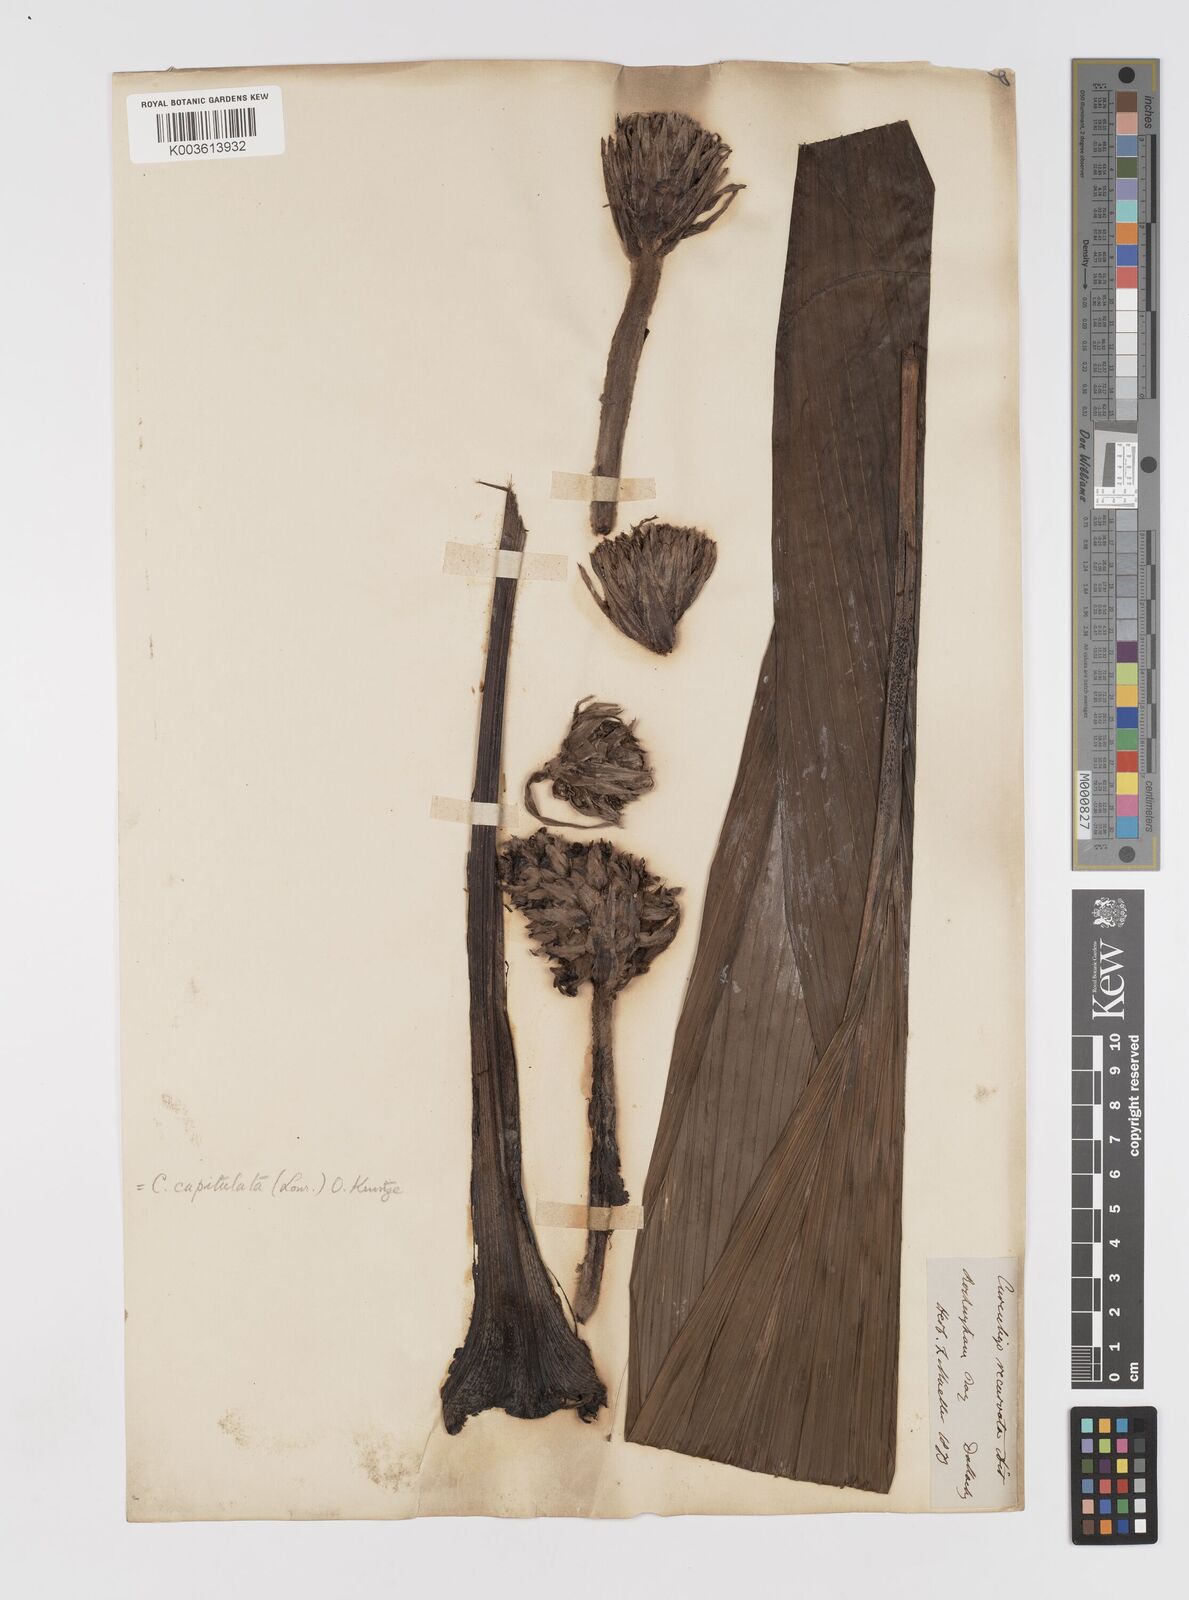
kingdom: Plantae
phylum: Tracheophyta
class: Liliopsida
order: Asparagales
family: Hypoxidaceae
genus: Curculigo
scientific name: Curculigo capitulata
